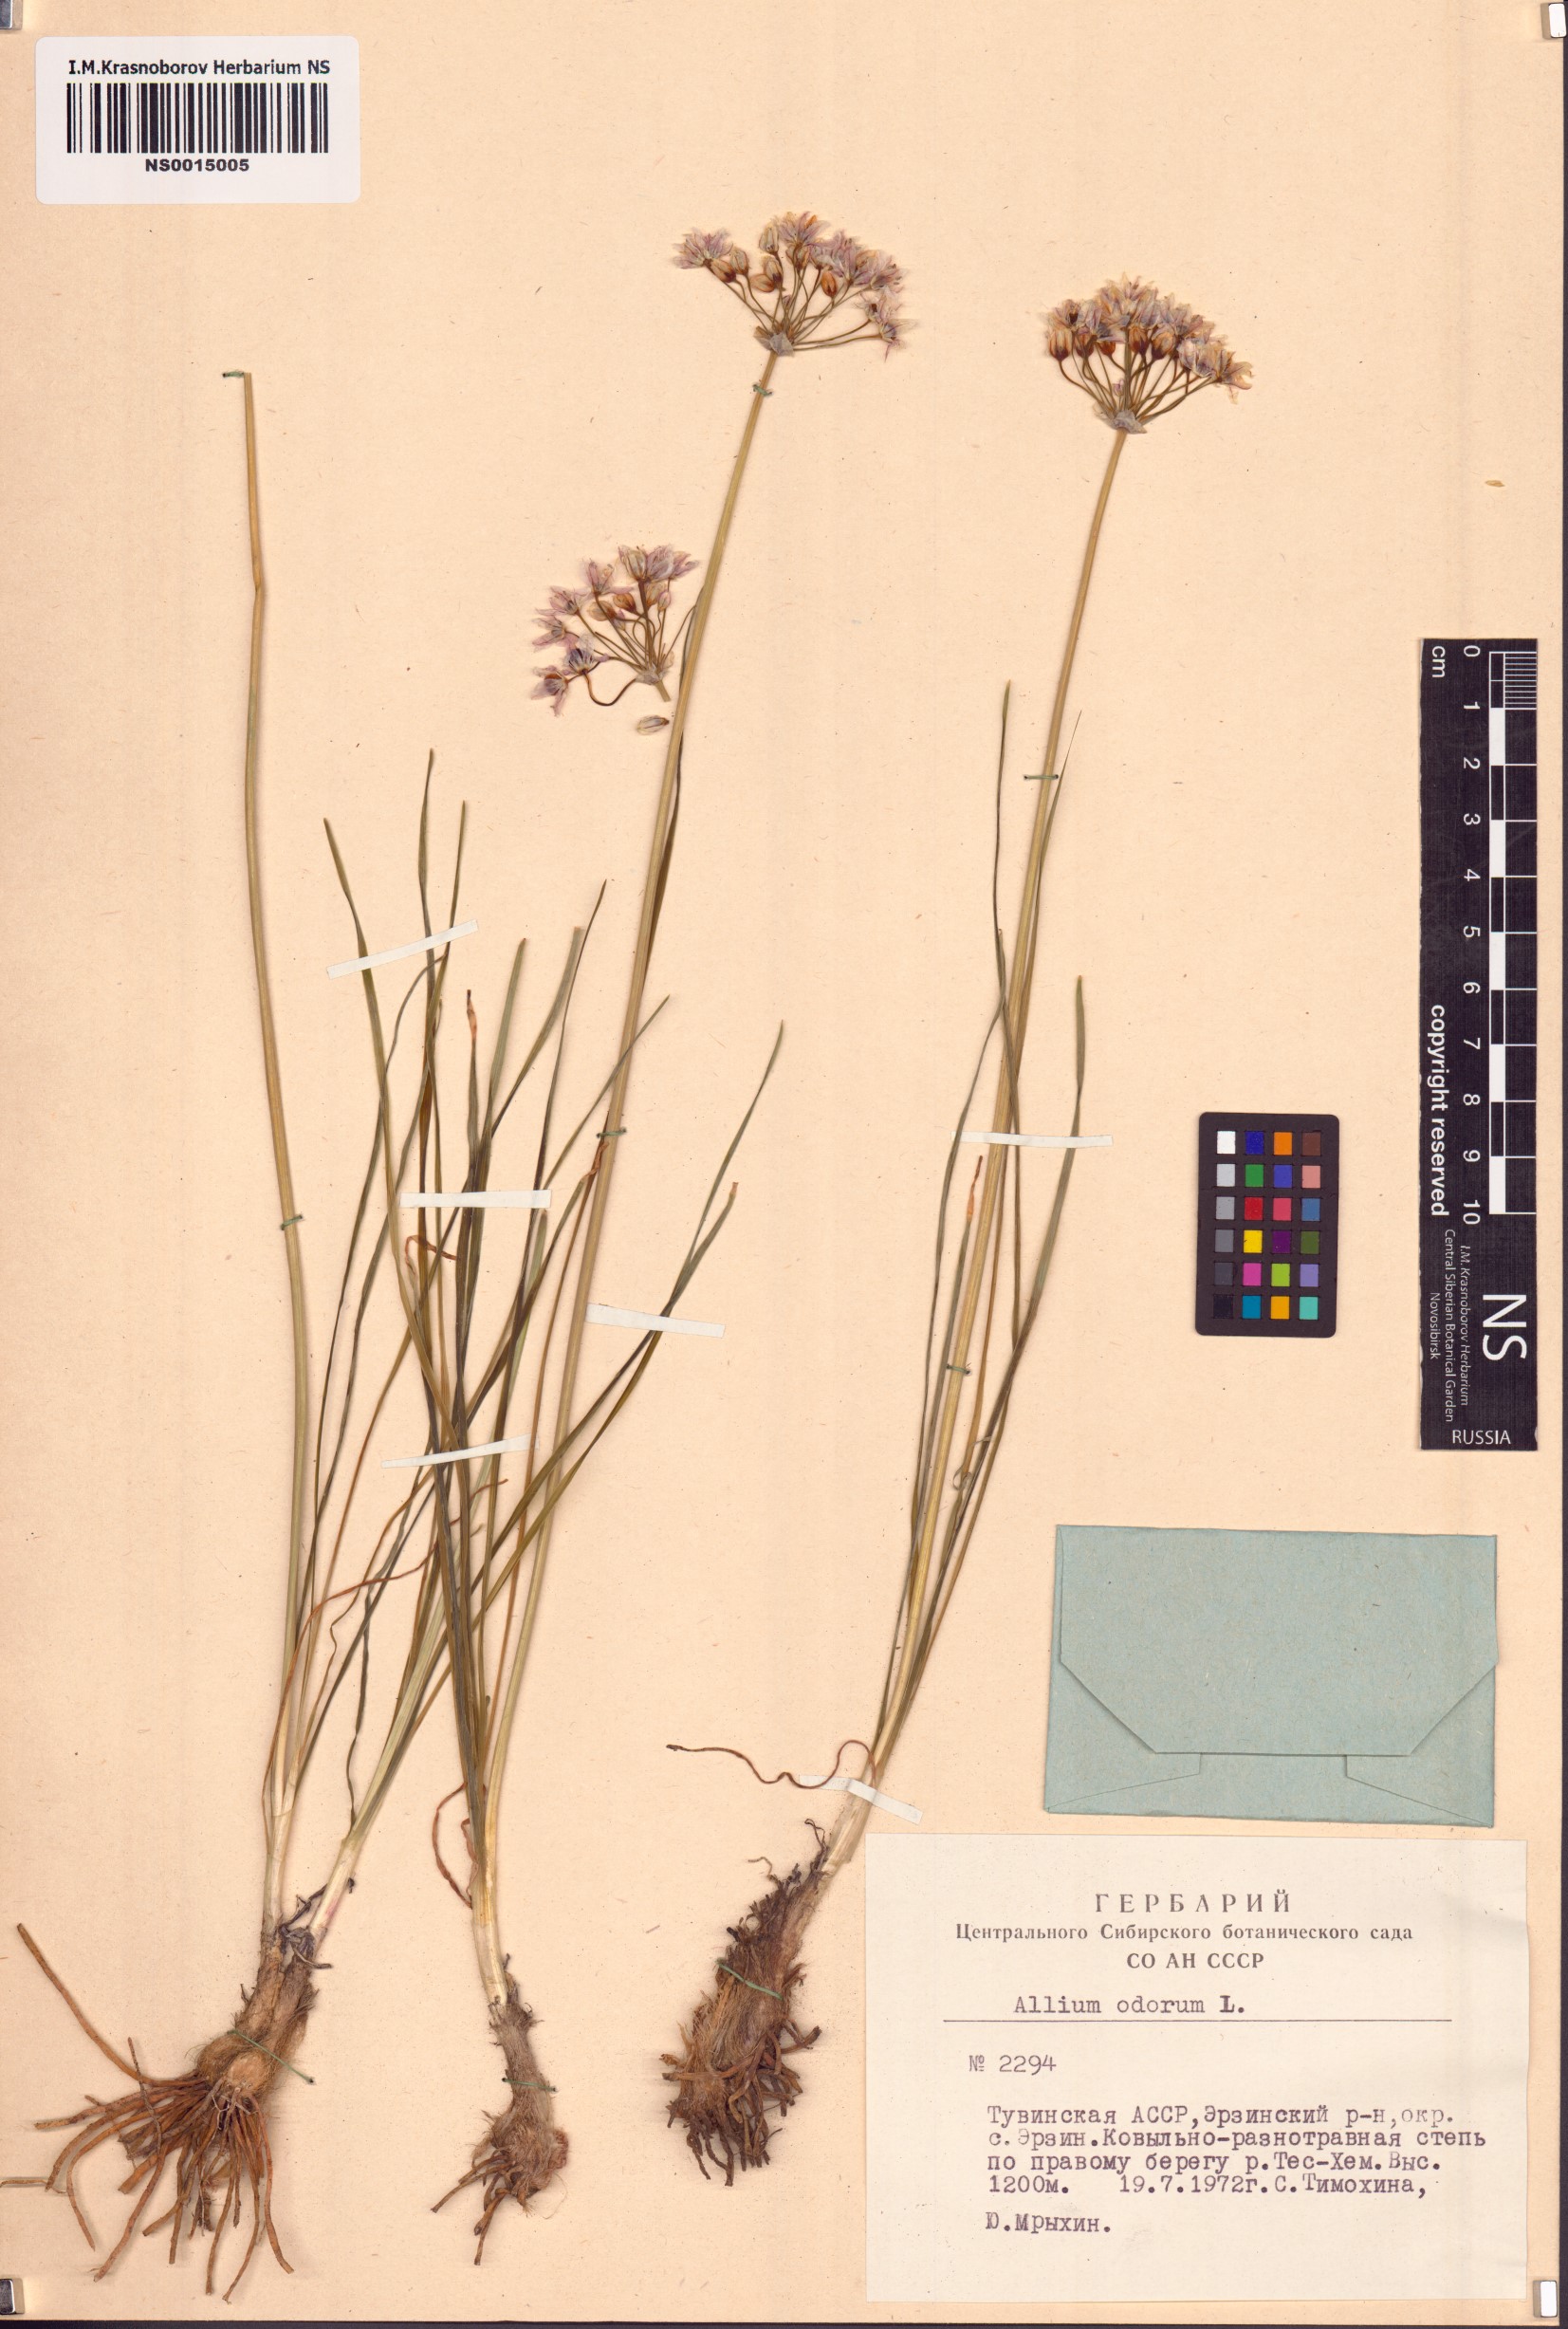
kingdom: Plantae
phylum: Tracheophyta
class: Liliopsida
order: Asparagales
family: Amaryllidaceae
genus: Allium
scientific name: Allium ramosum
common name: Fragrant garlic
